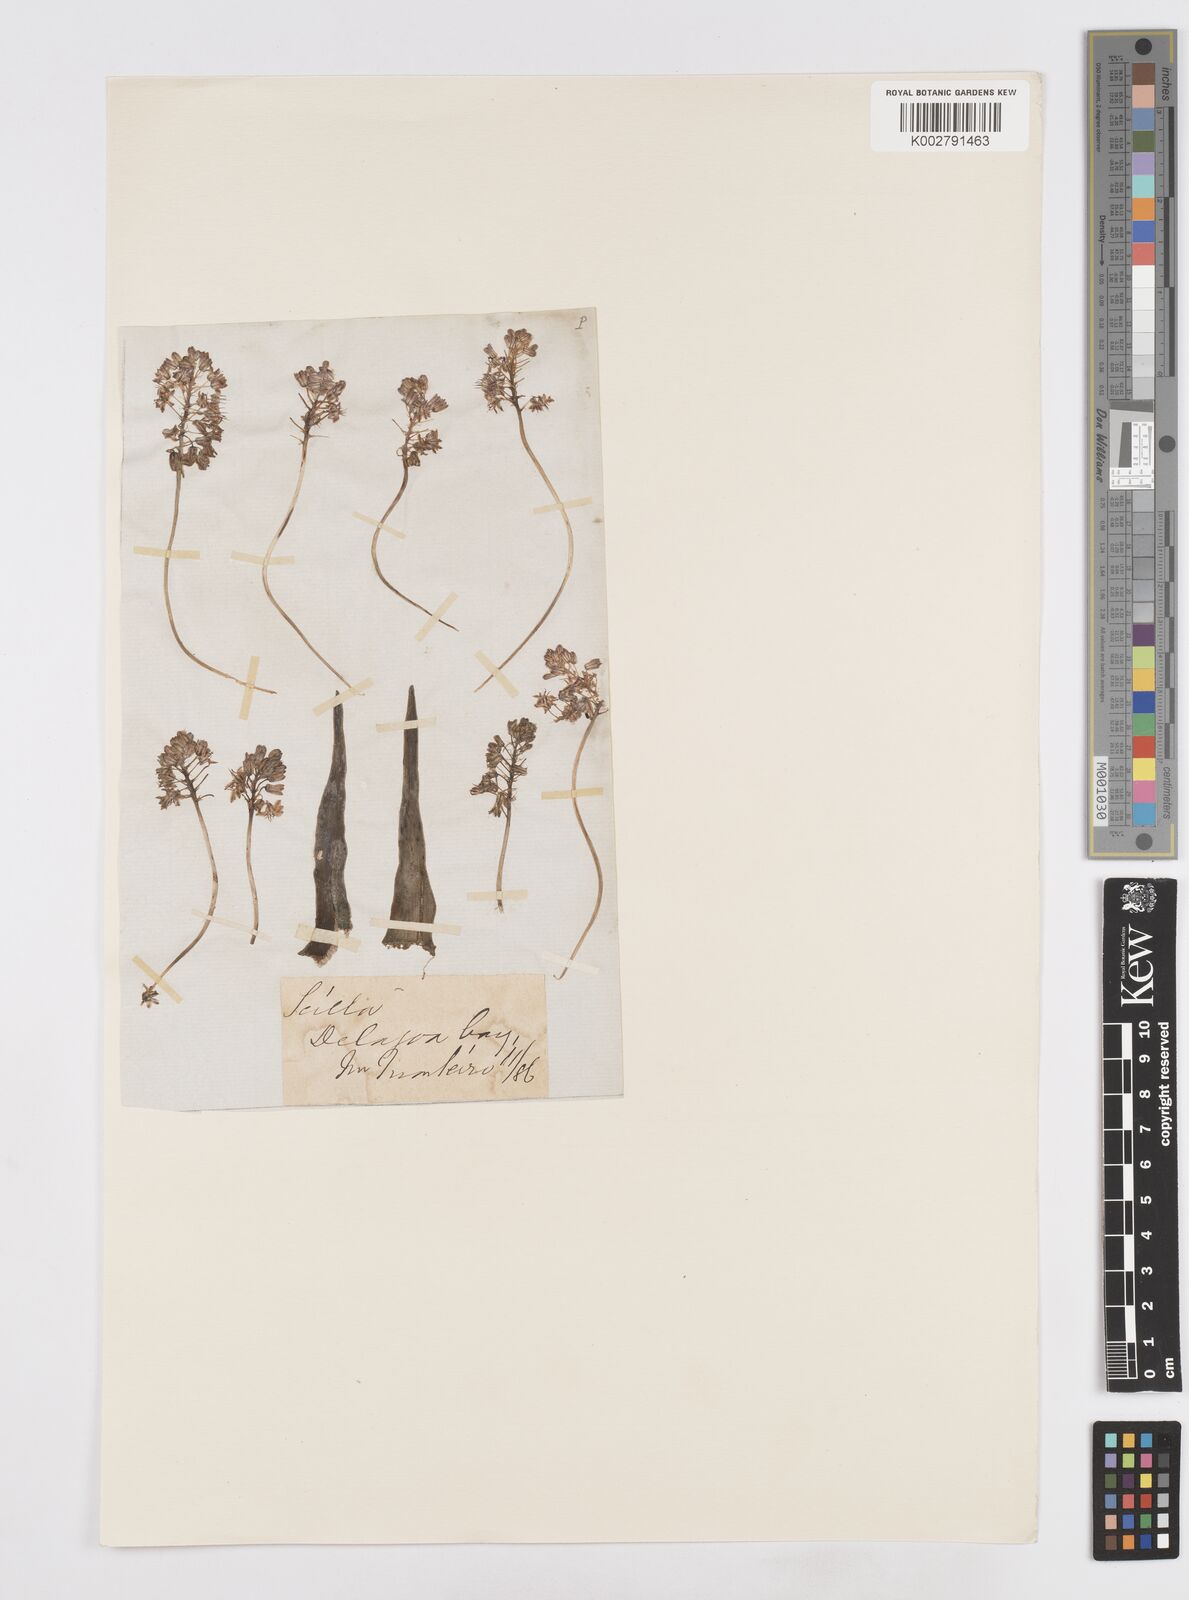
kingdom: Plantae
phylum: Tracheophyta
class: Liliopsida
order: Asparagales
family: Asparagaceae
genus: Scilla
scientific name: Scilla
